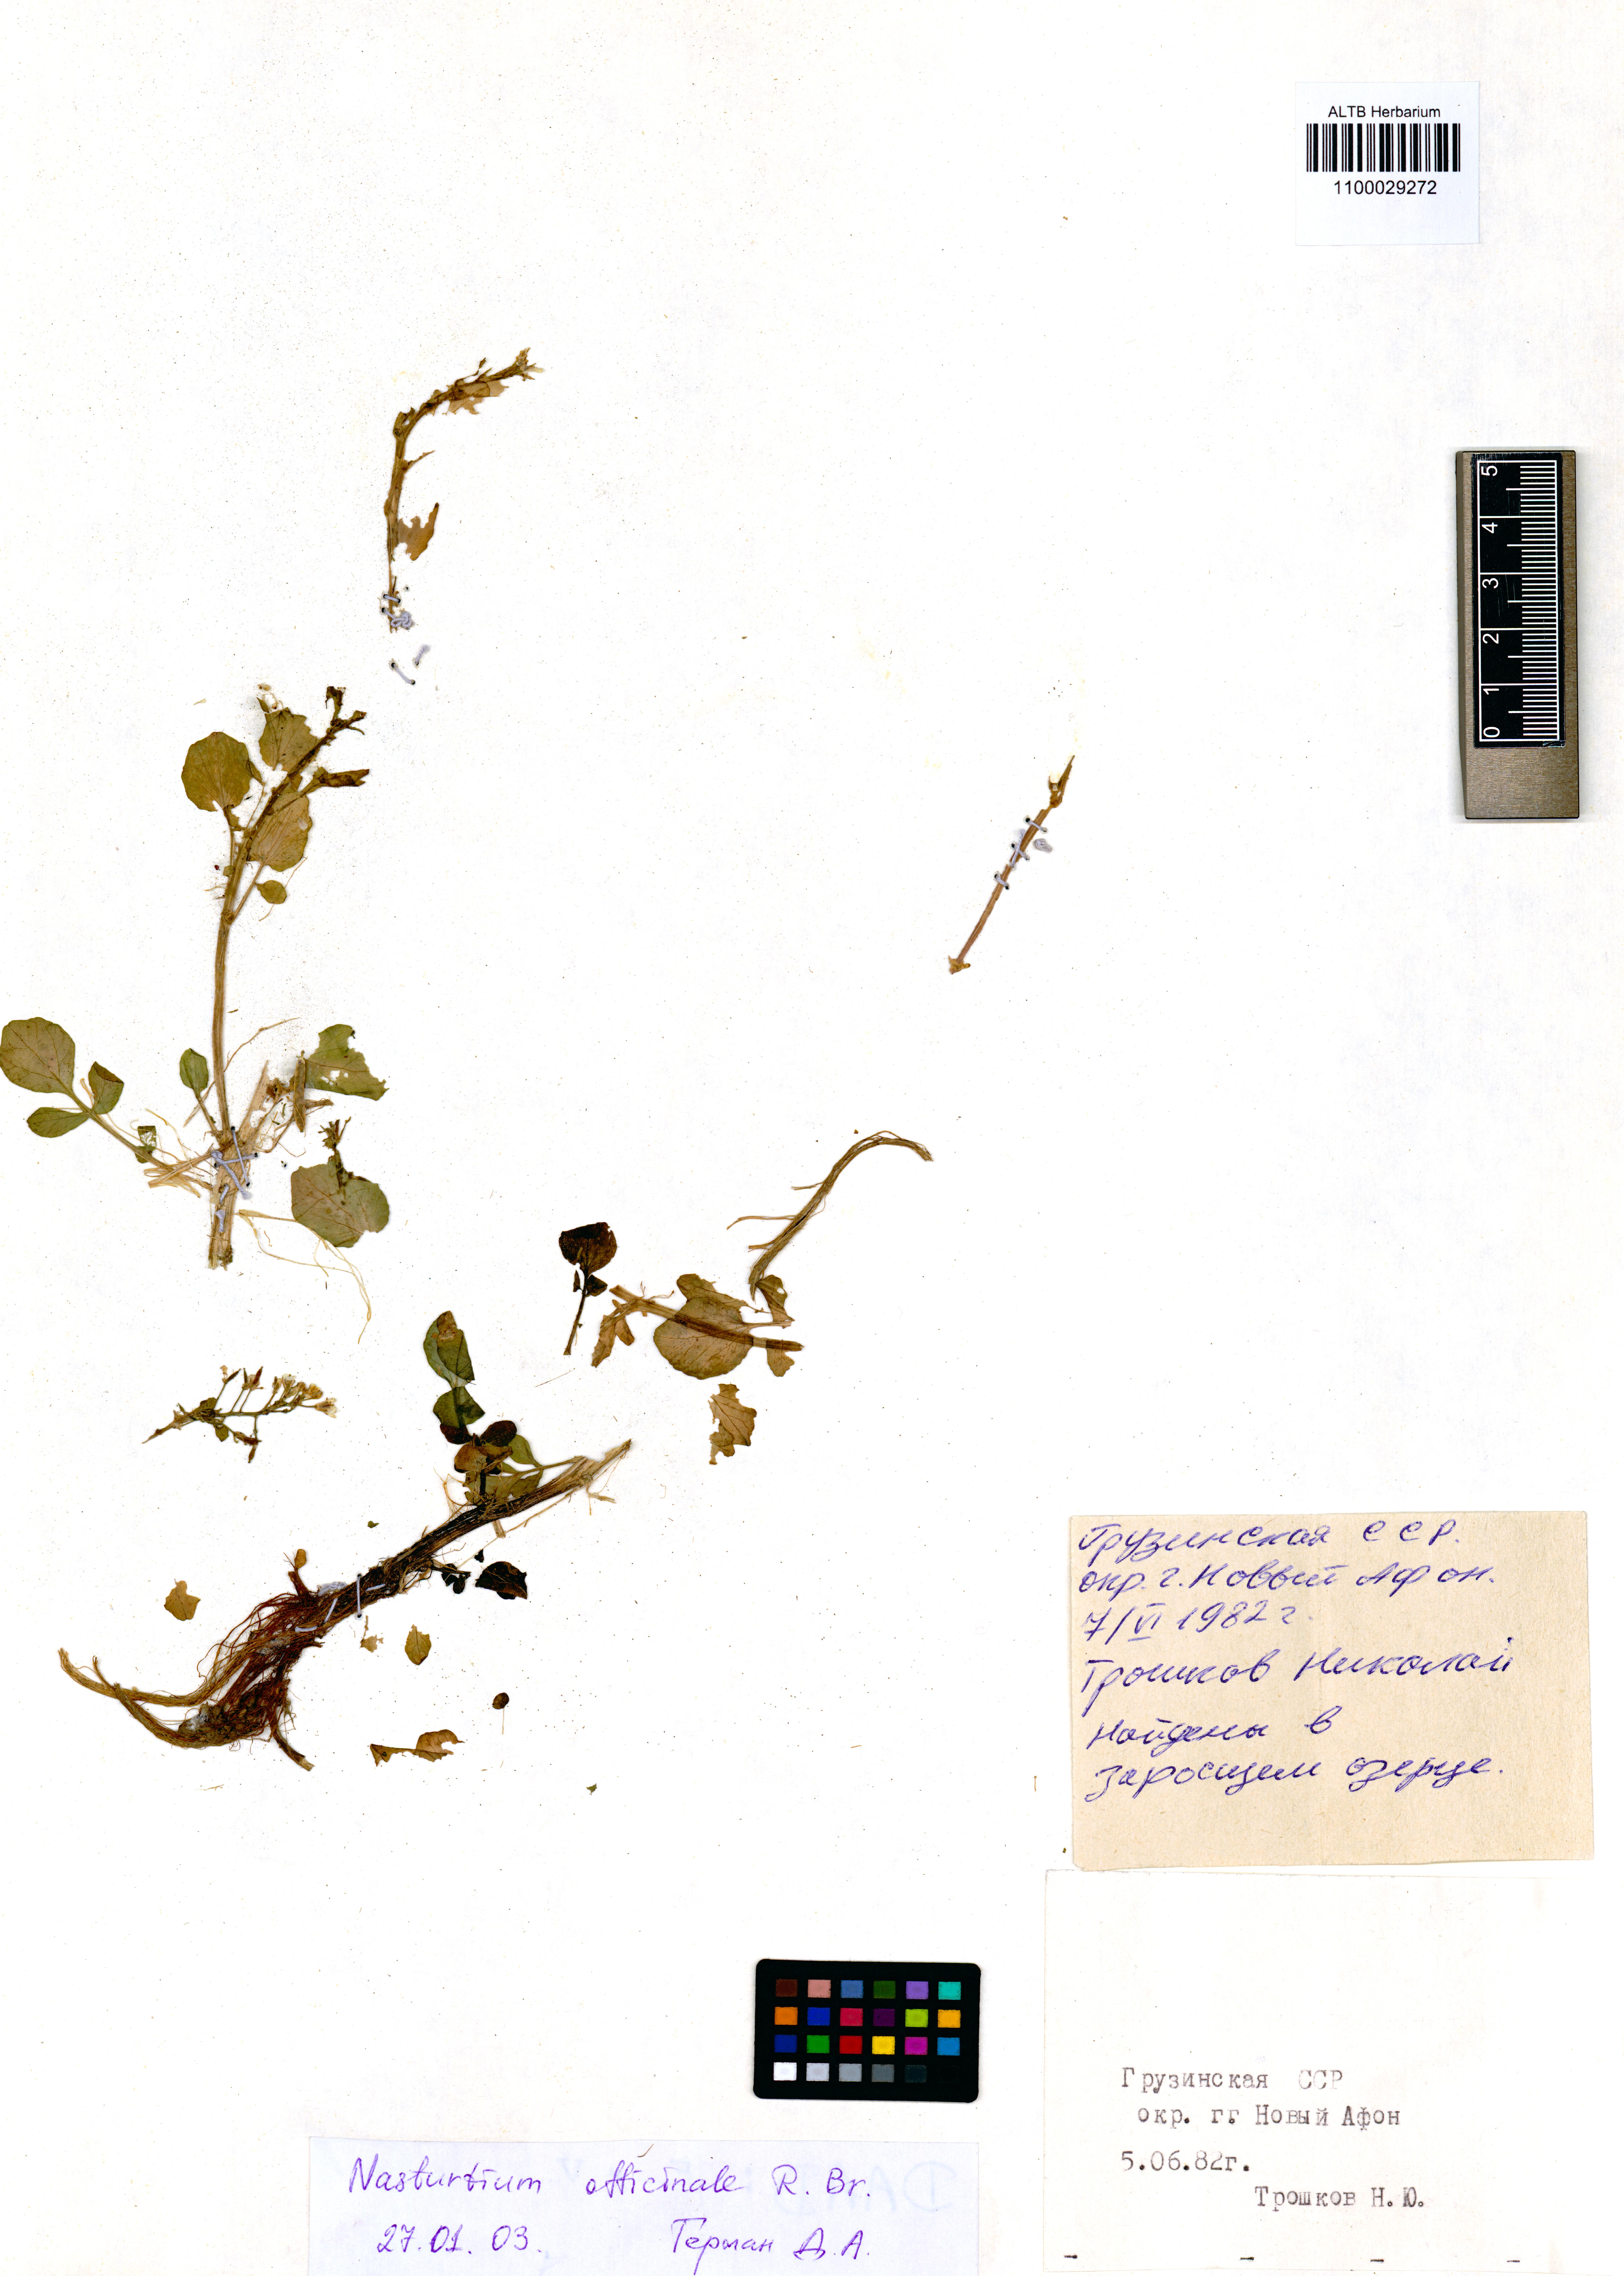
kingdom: Plantae
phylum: Tracheophyta
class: Magnoliopsida
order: Brassicales
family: Brassicaceae
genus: Nasturtium
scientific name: Nasturtium officinale
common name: Watercress
